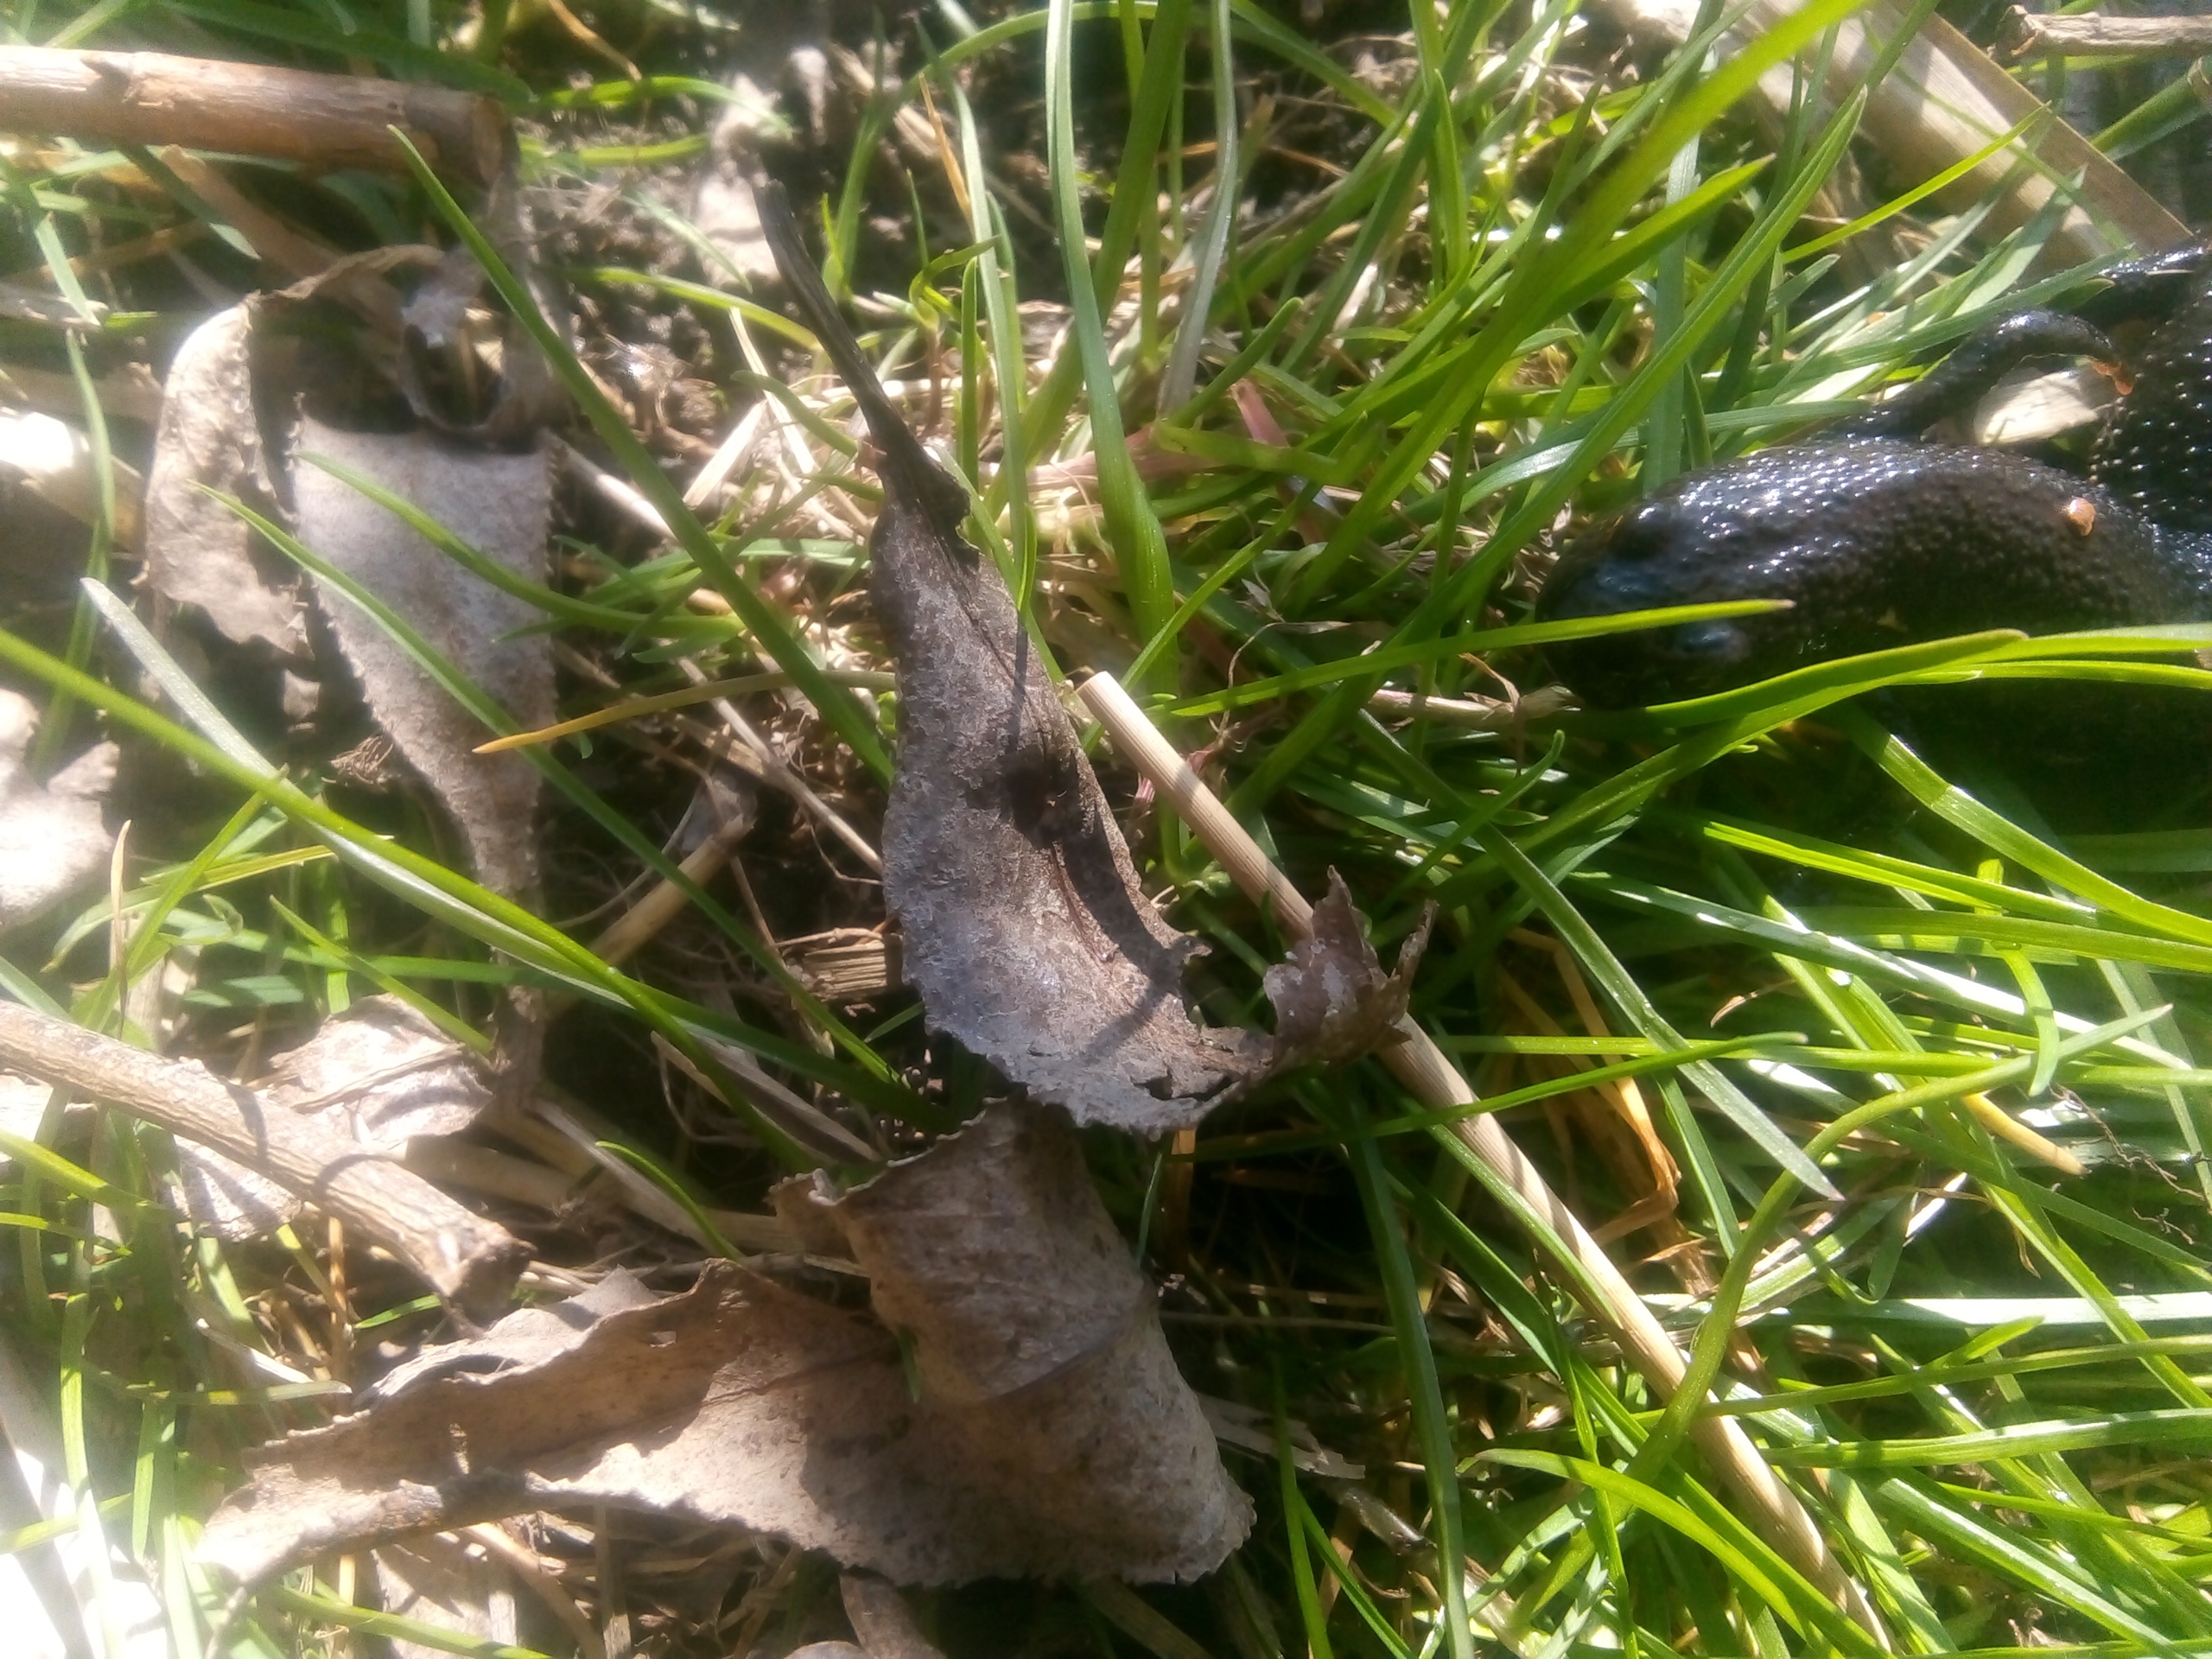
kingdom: Animalia
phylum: Chordata
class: Amphibia
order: Caudata
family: Salamandridae
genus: Triturus
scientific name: Triturus cristatus
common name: Stor vandsalamander
